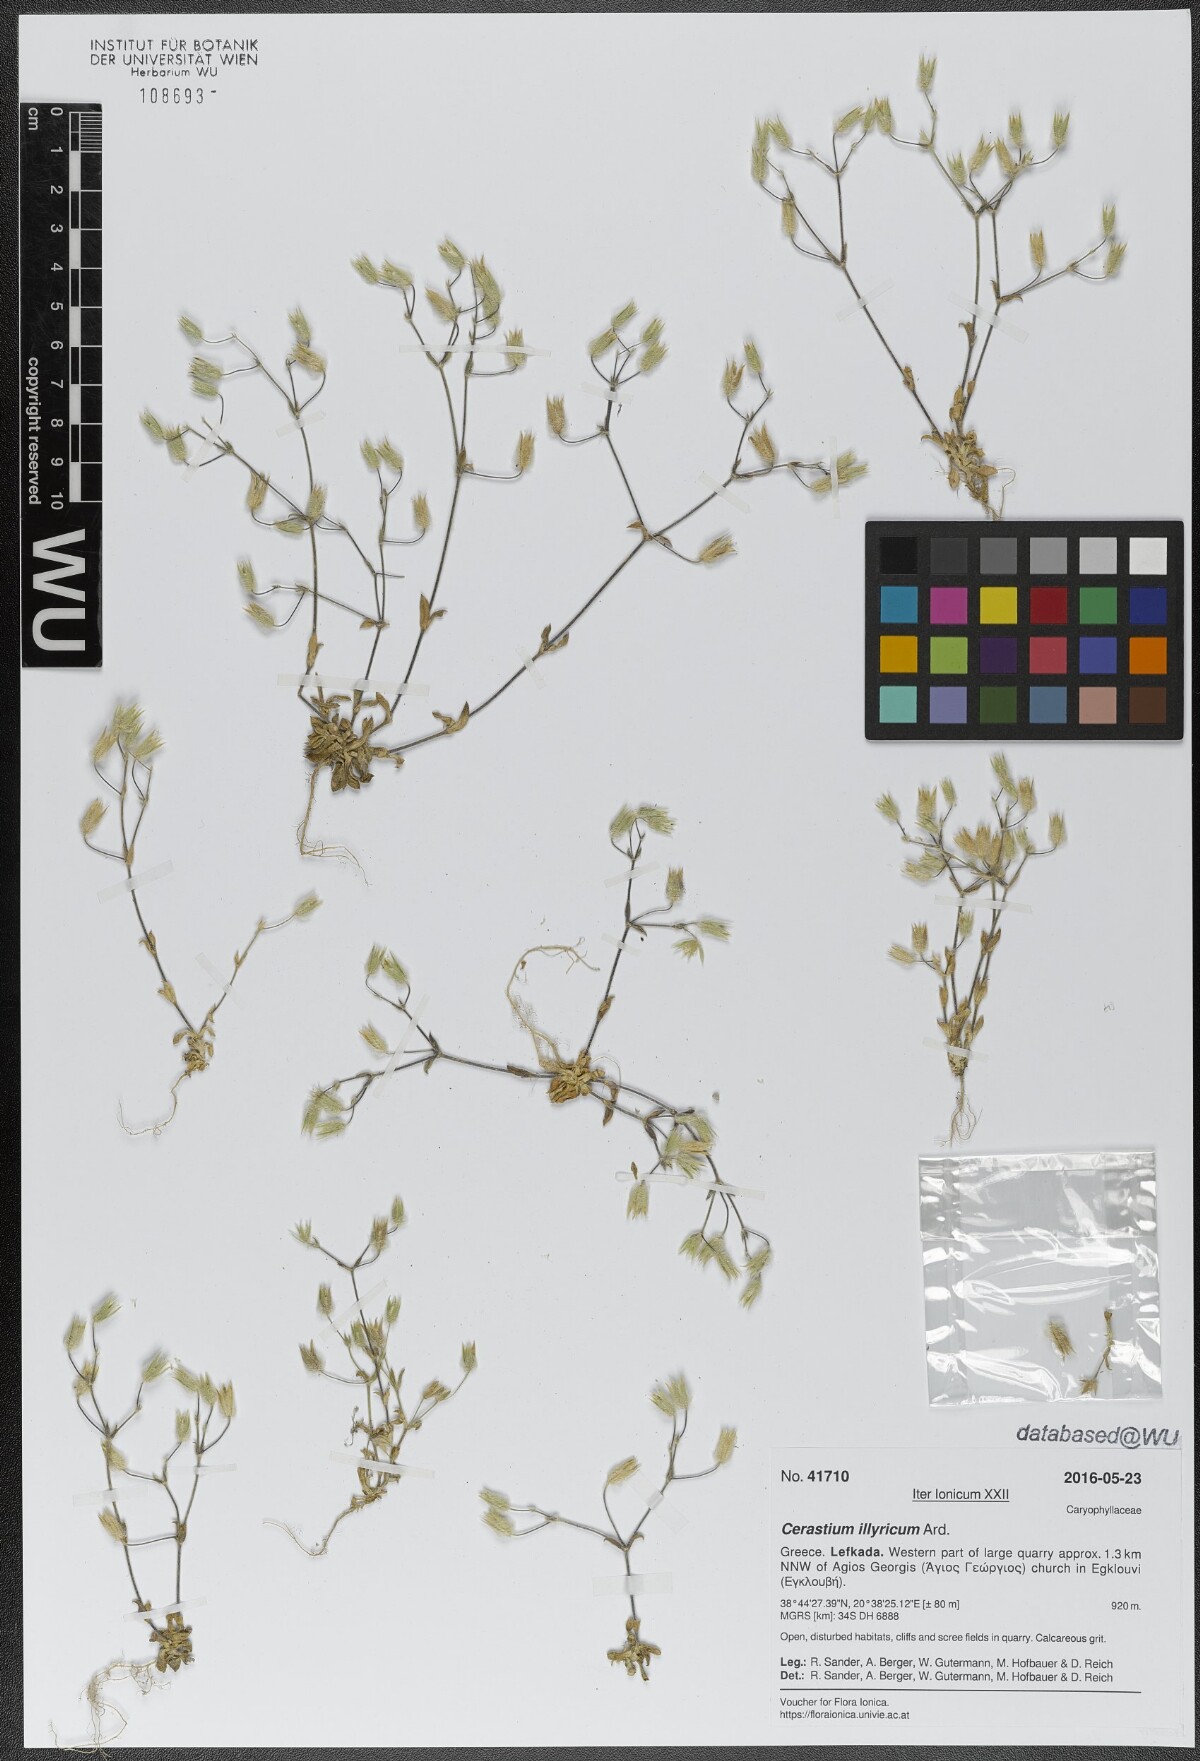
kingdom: Plantae
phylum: Tracheophyta
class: Magnoliopsida
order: Caryophyllales
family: Caryophyllaceae
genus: Cerastium
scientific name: Cerastium illyricum
